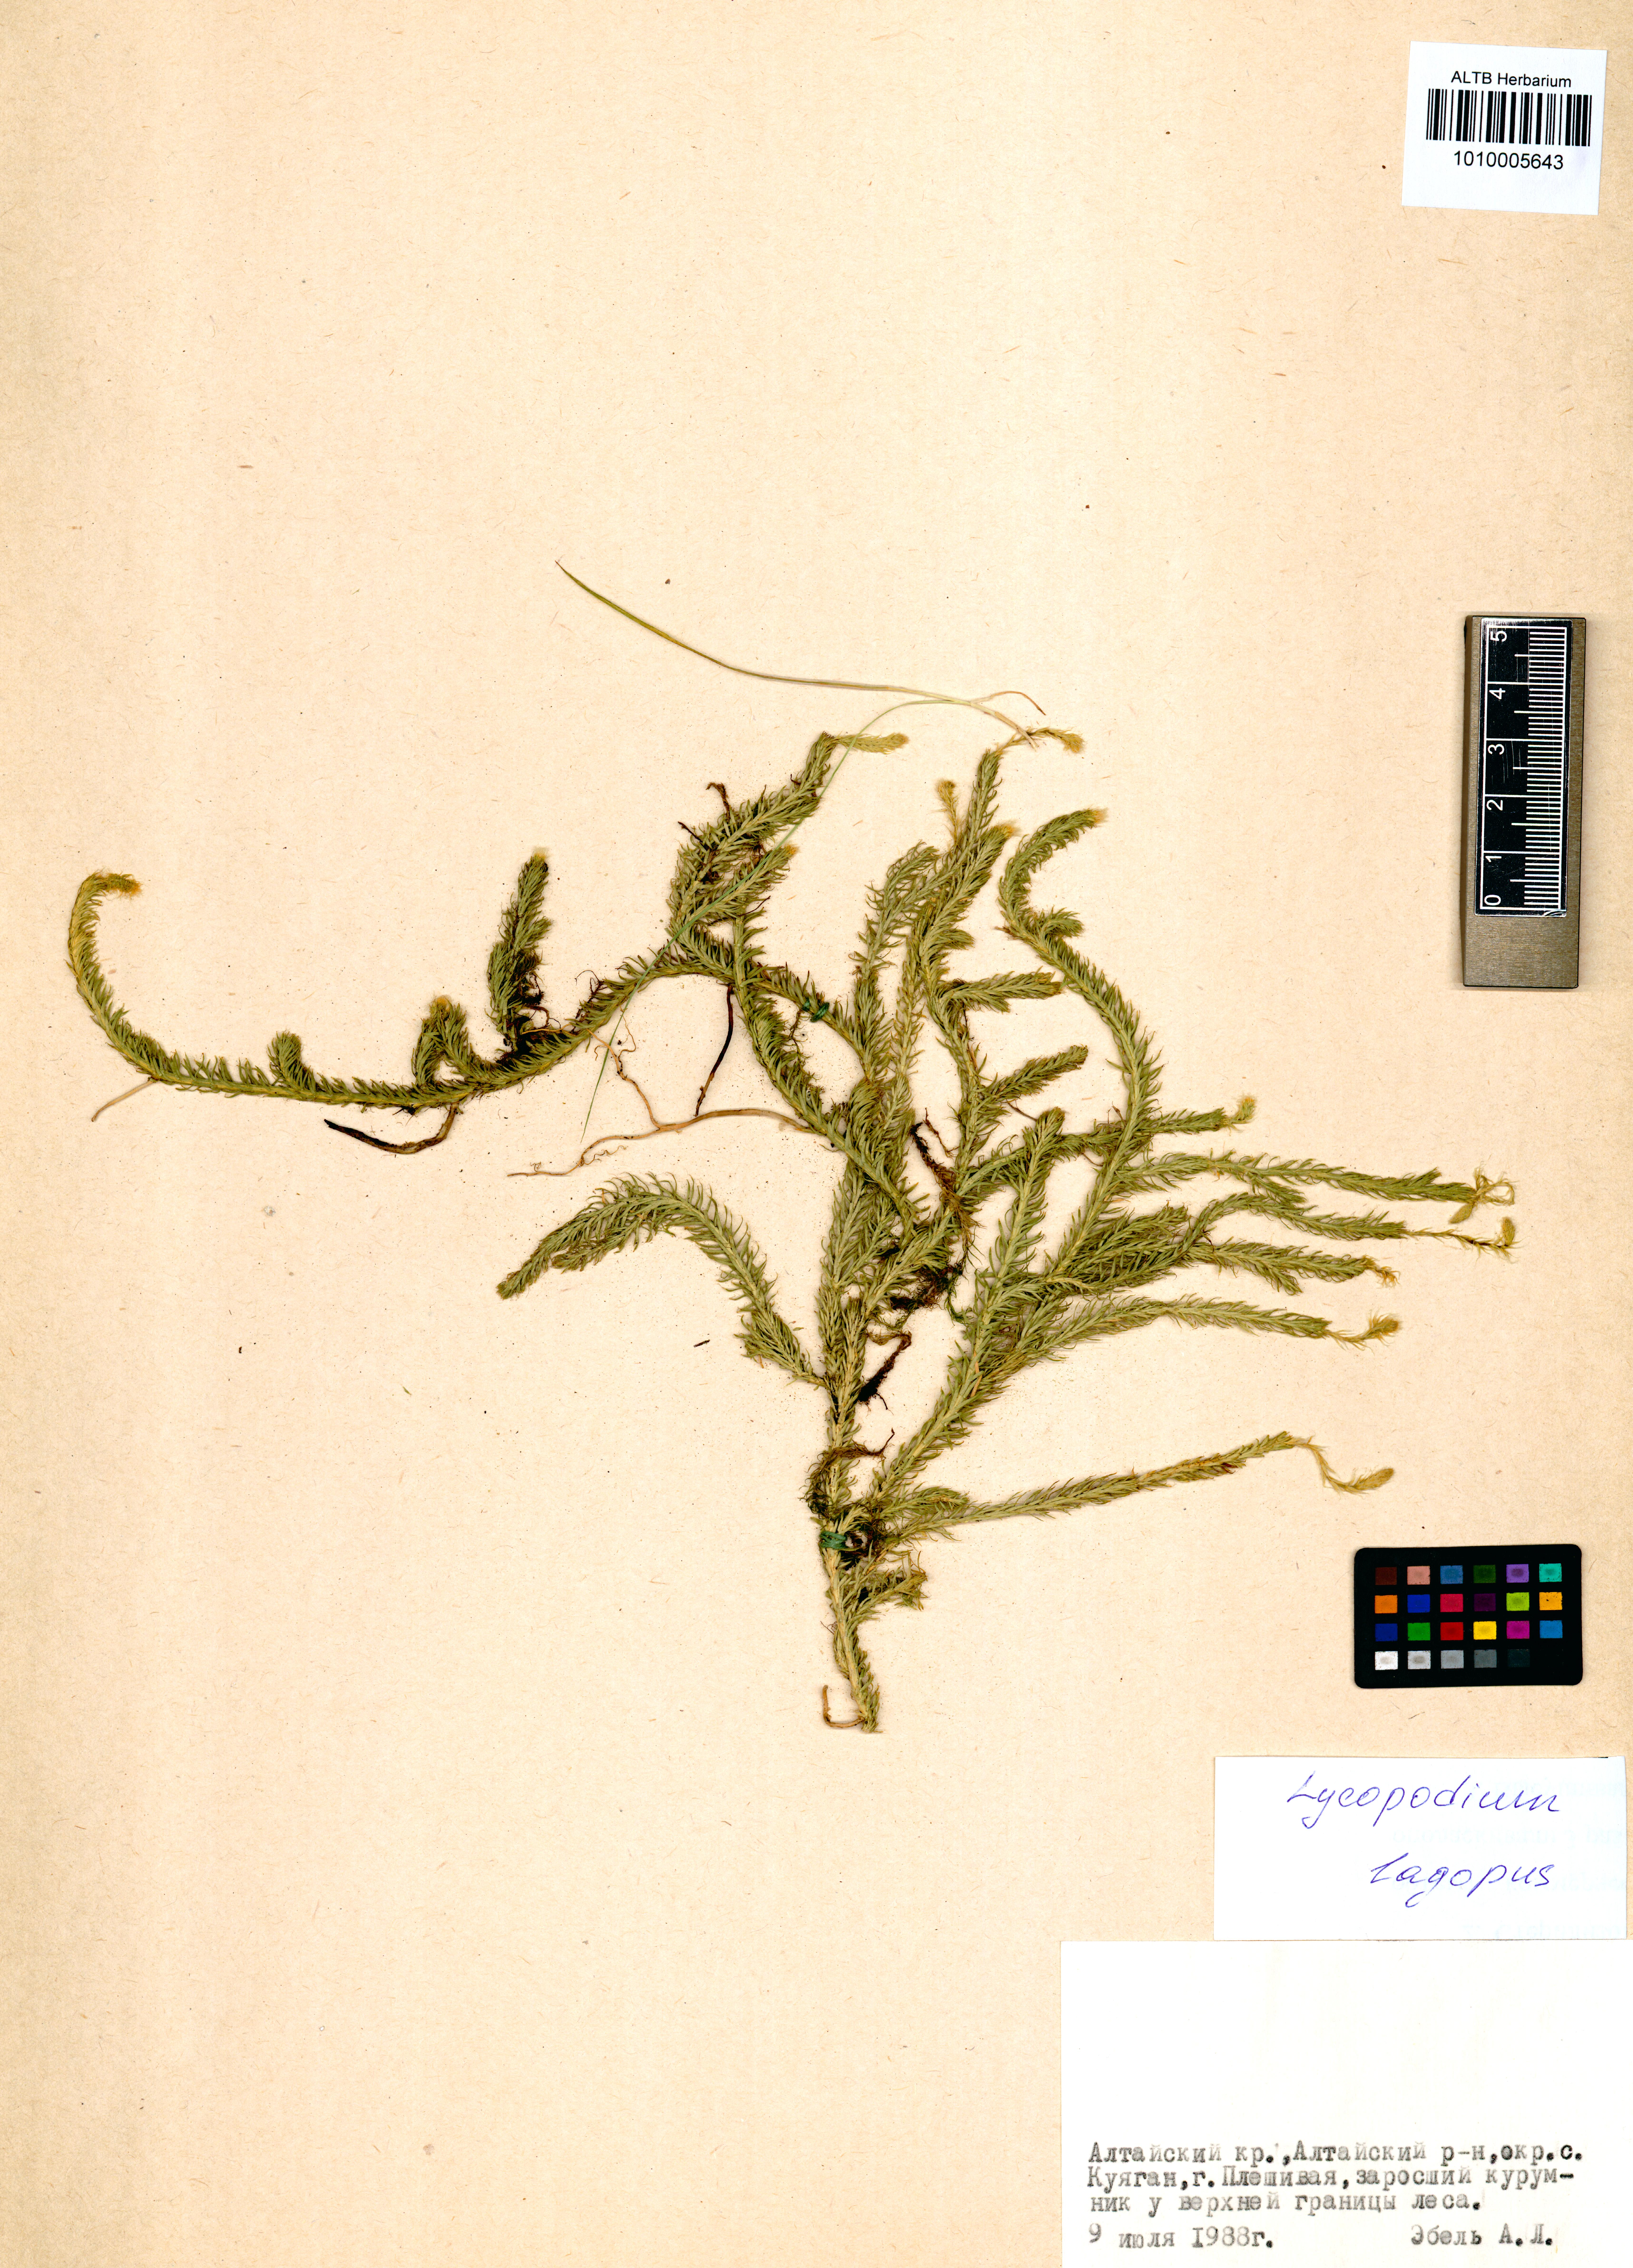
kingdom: Plantae
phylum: Tracheophyta
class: Lycopodiopsida
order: Lycopodiales
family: Lycopodiaceae
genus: Lycopodium
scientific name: Lycopodium lagopus
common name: One-cone clubmoss
